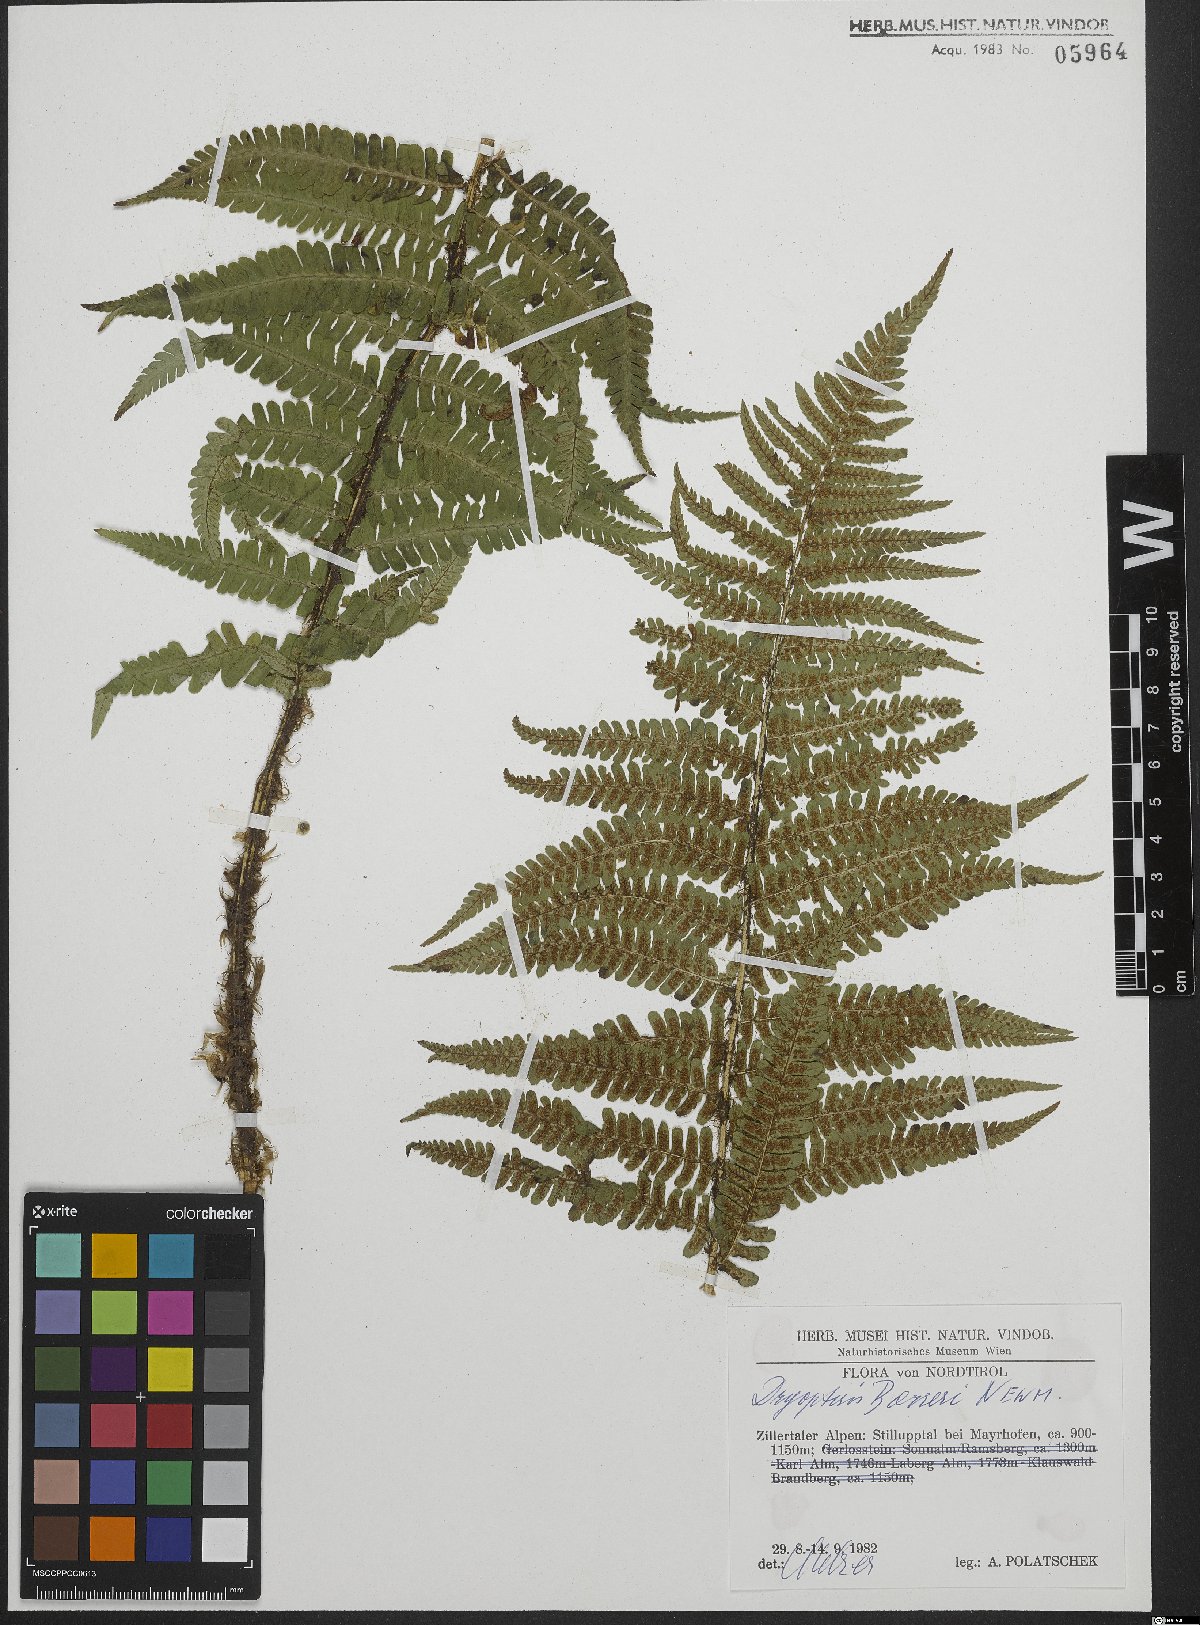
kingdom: Plantae
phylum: Tracheophyta
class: Polypodiopsida
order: Polypodiales
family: Dryopteridaceae
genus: Dryopteris
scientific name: Dryopteris borreri
